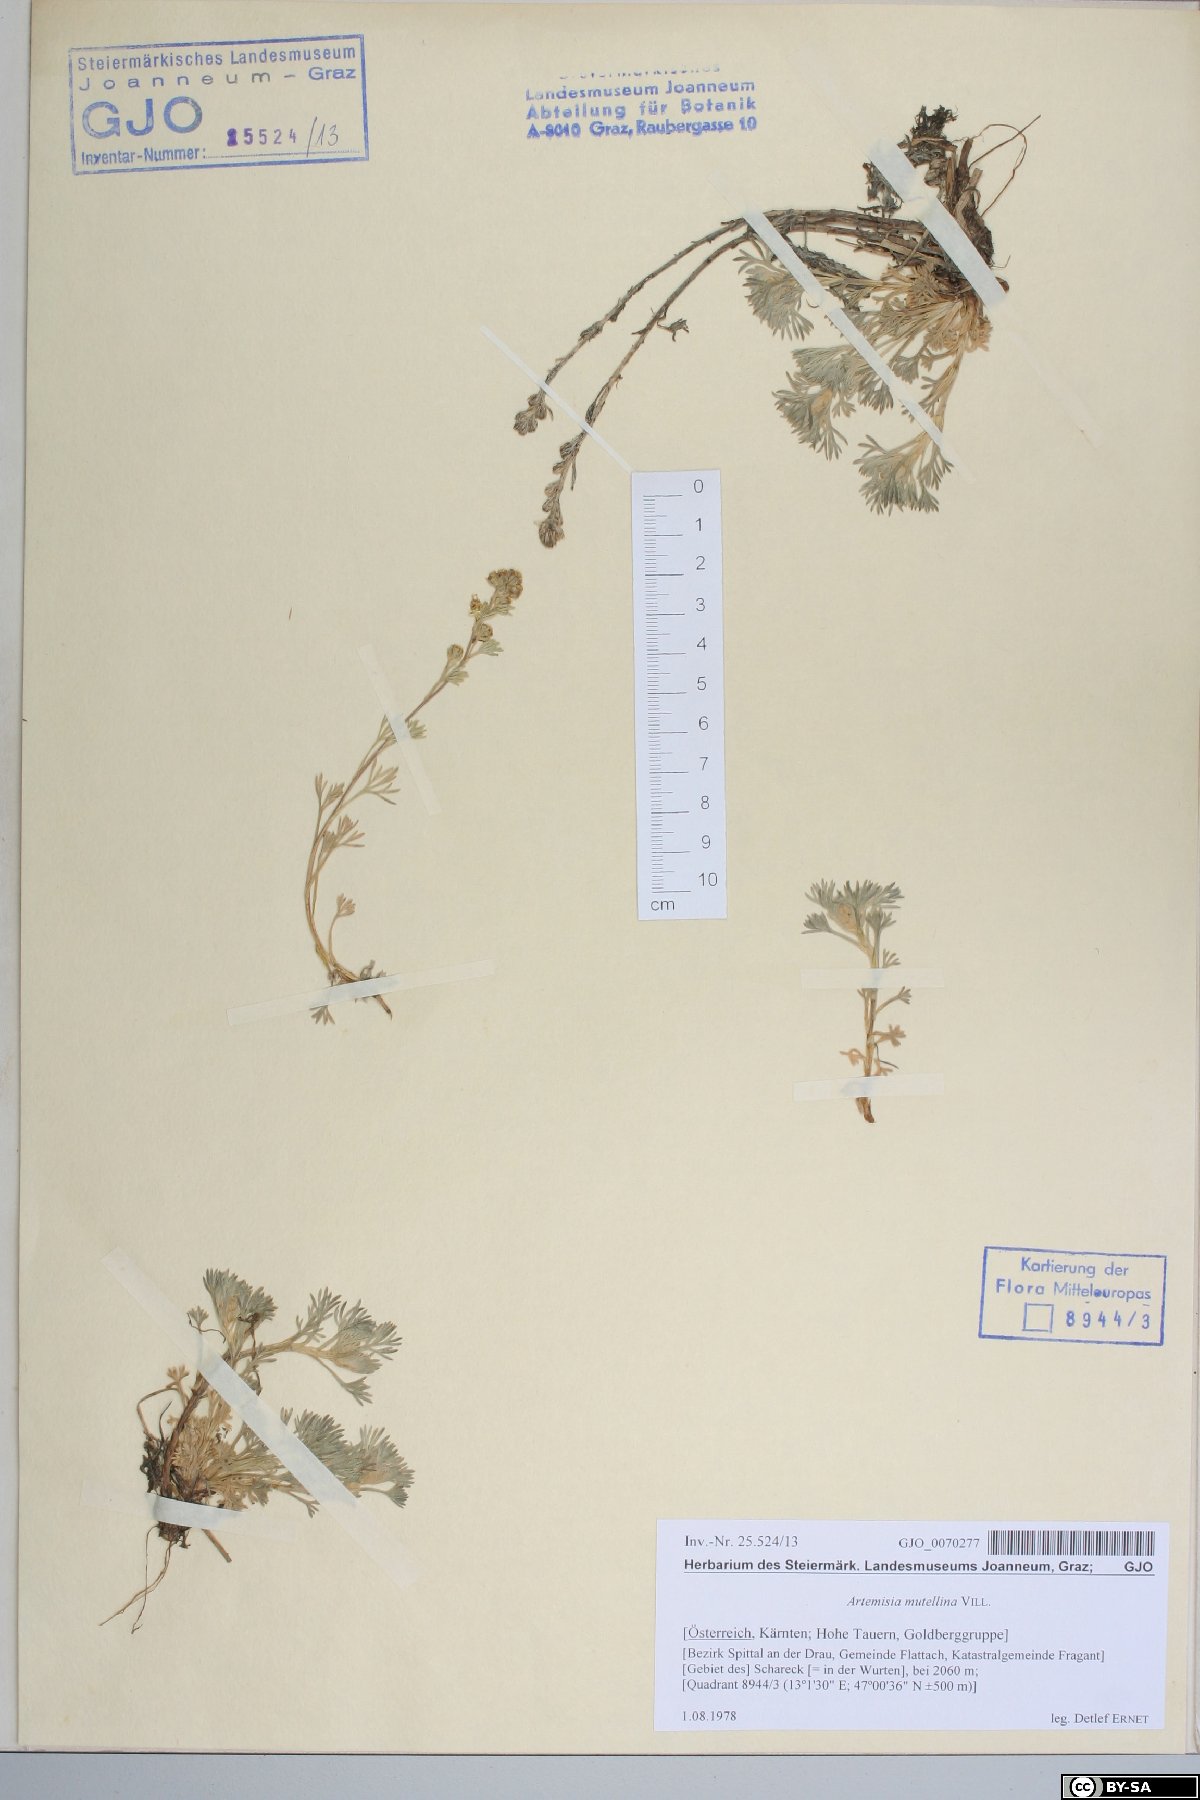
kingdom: Plantae
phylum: Tracheophyta
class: Magnoliopsida
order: Asterales
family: Asteraceae
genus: Artemisia
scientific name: Artemisia mutellina
